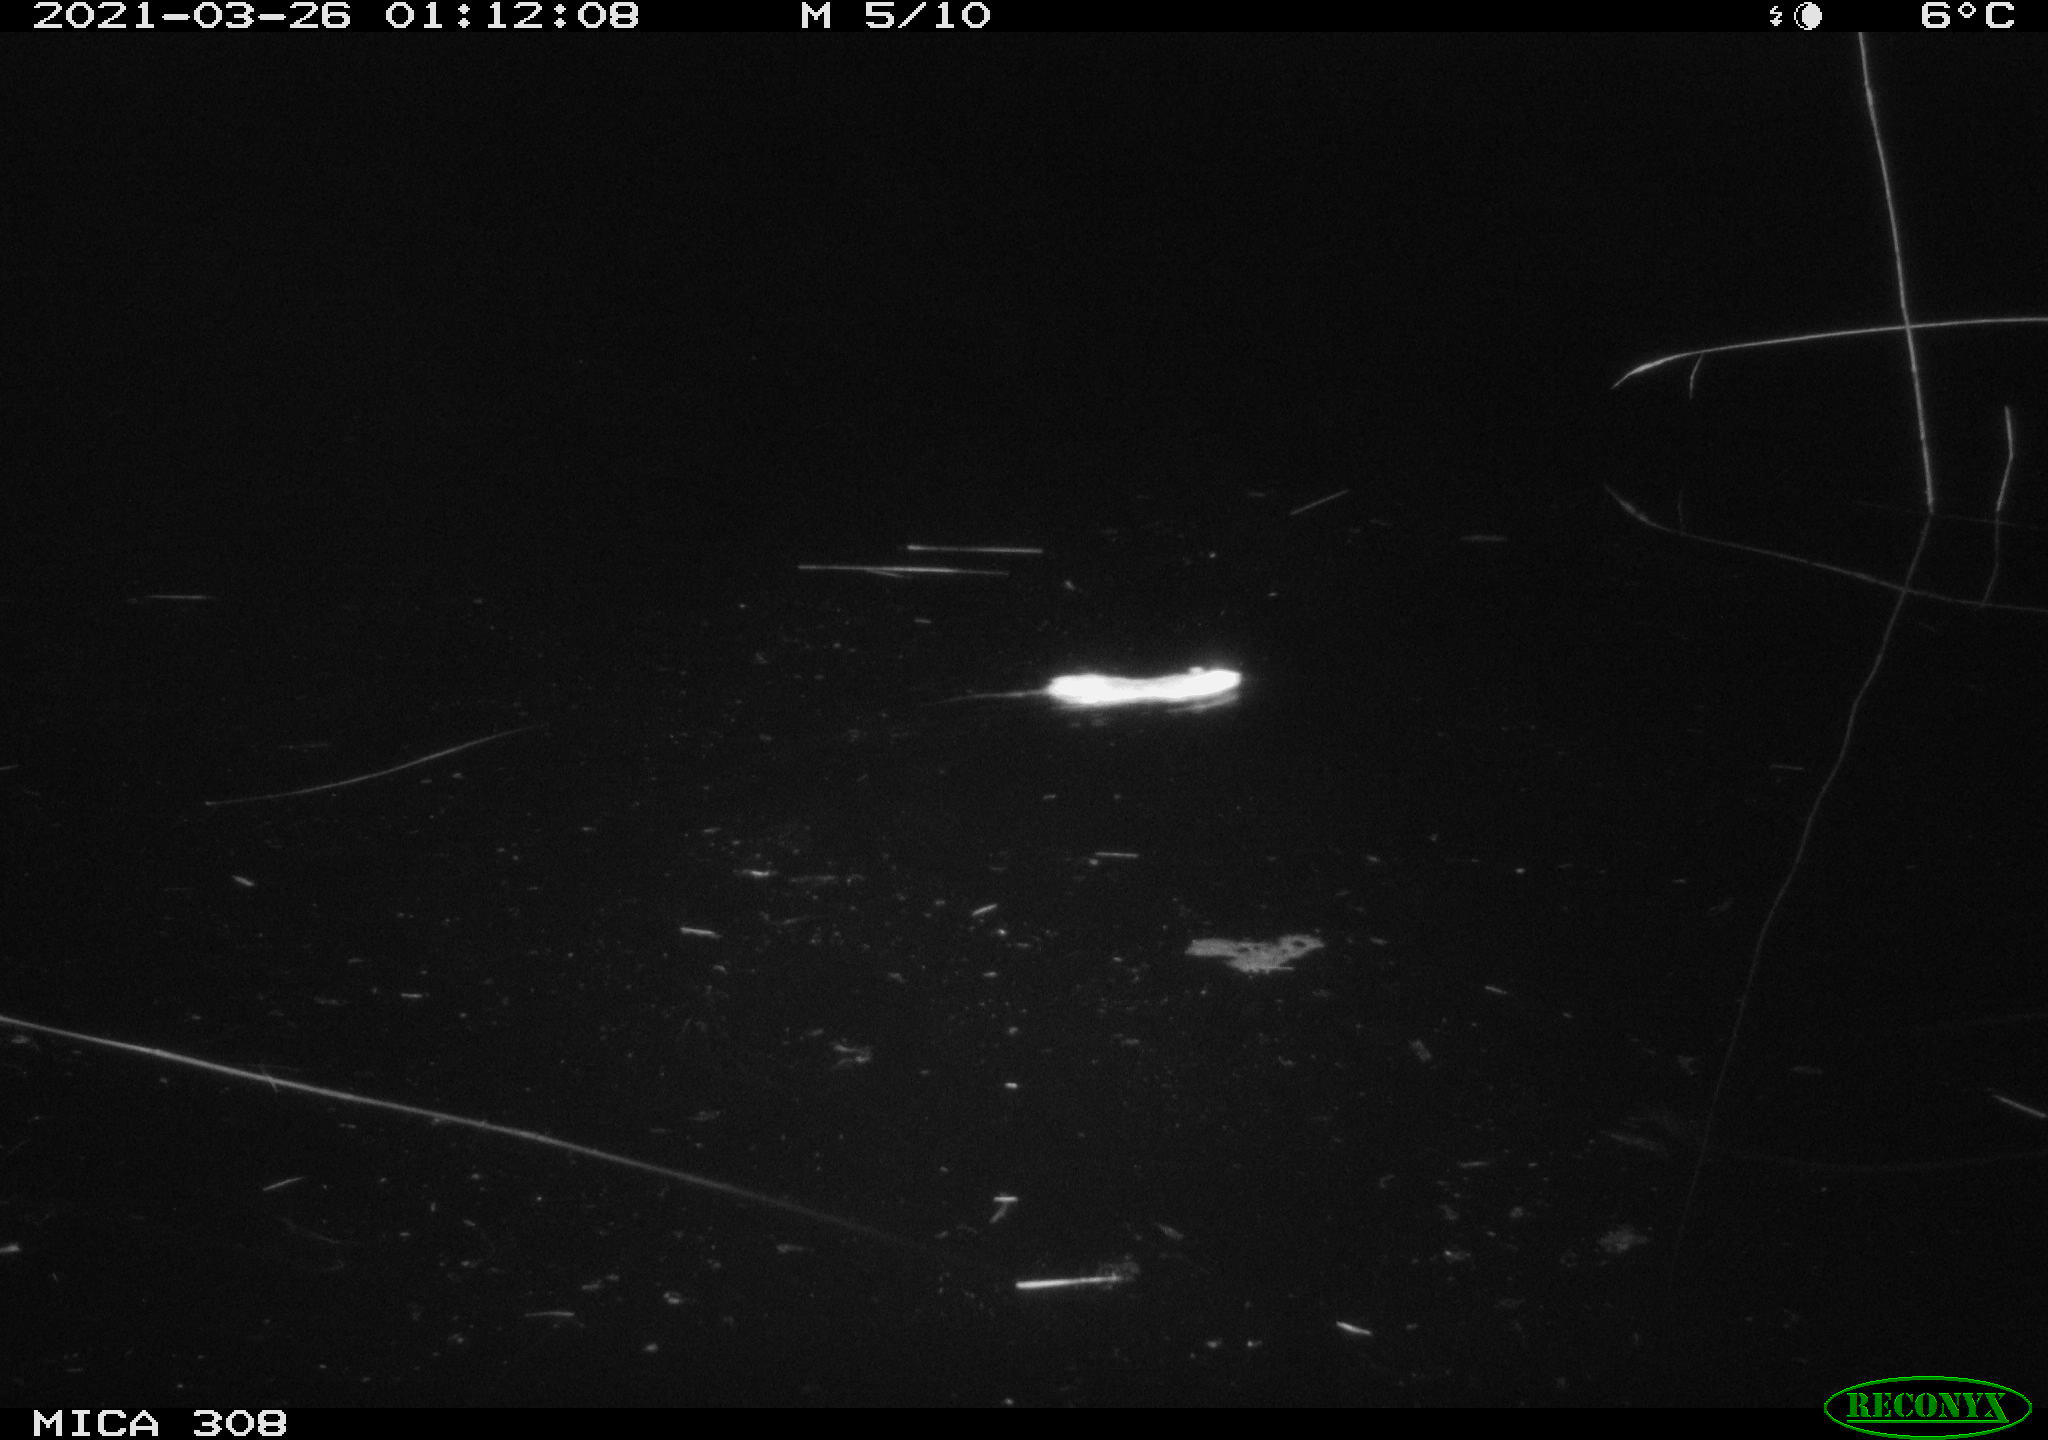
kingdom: Animalia
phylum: Chordata
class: Mammalia
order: Rodentia
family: Muridae
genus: Rattus
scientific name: Rattus norvegicus
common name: Brown rat
